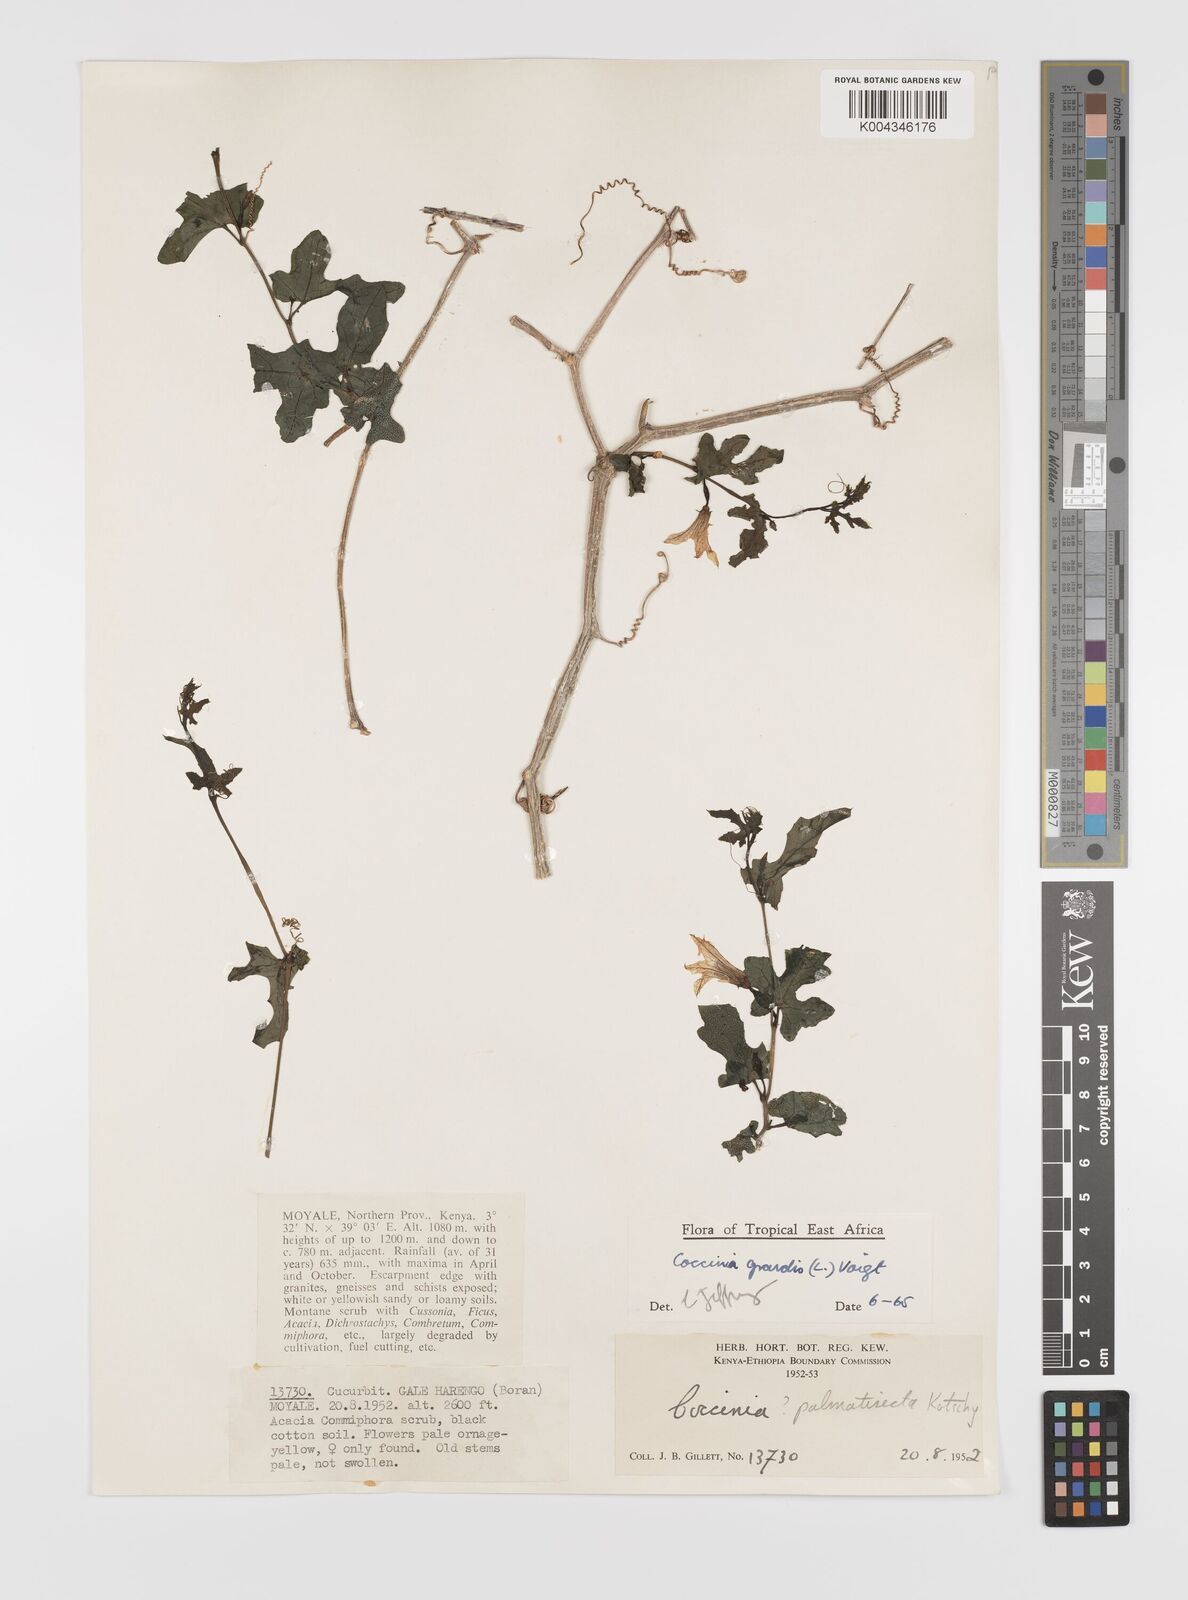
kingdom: Plantae
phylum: Tracheophyta
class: Magnoliopsida
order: Cucurbitales
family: Cucurbitaceae
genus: Coccinia
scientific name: Coccinia grandis
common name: Ivy gourd
